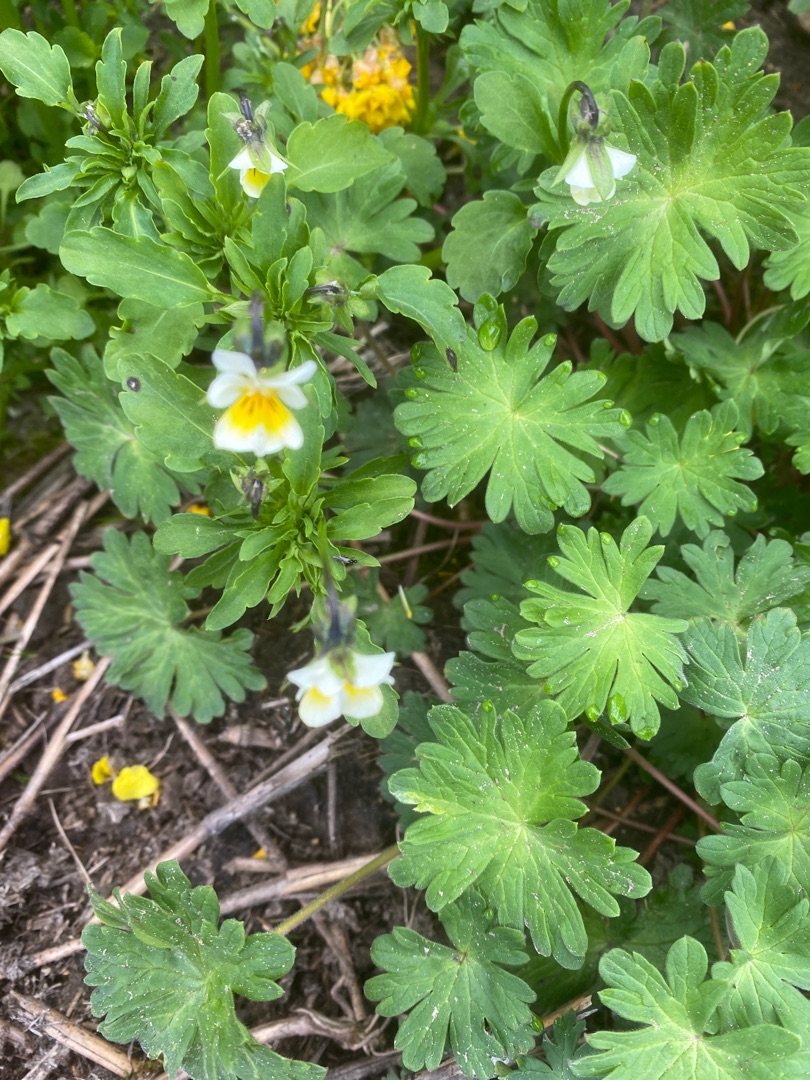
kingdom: Plantae
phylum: Tracheophyta
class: Magnoliopsida
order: Malpighiales
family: Violaceae
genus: Viola
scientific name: Viola arvensis
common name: Ager-stedmoderblomst
